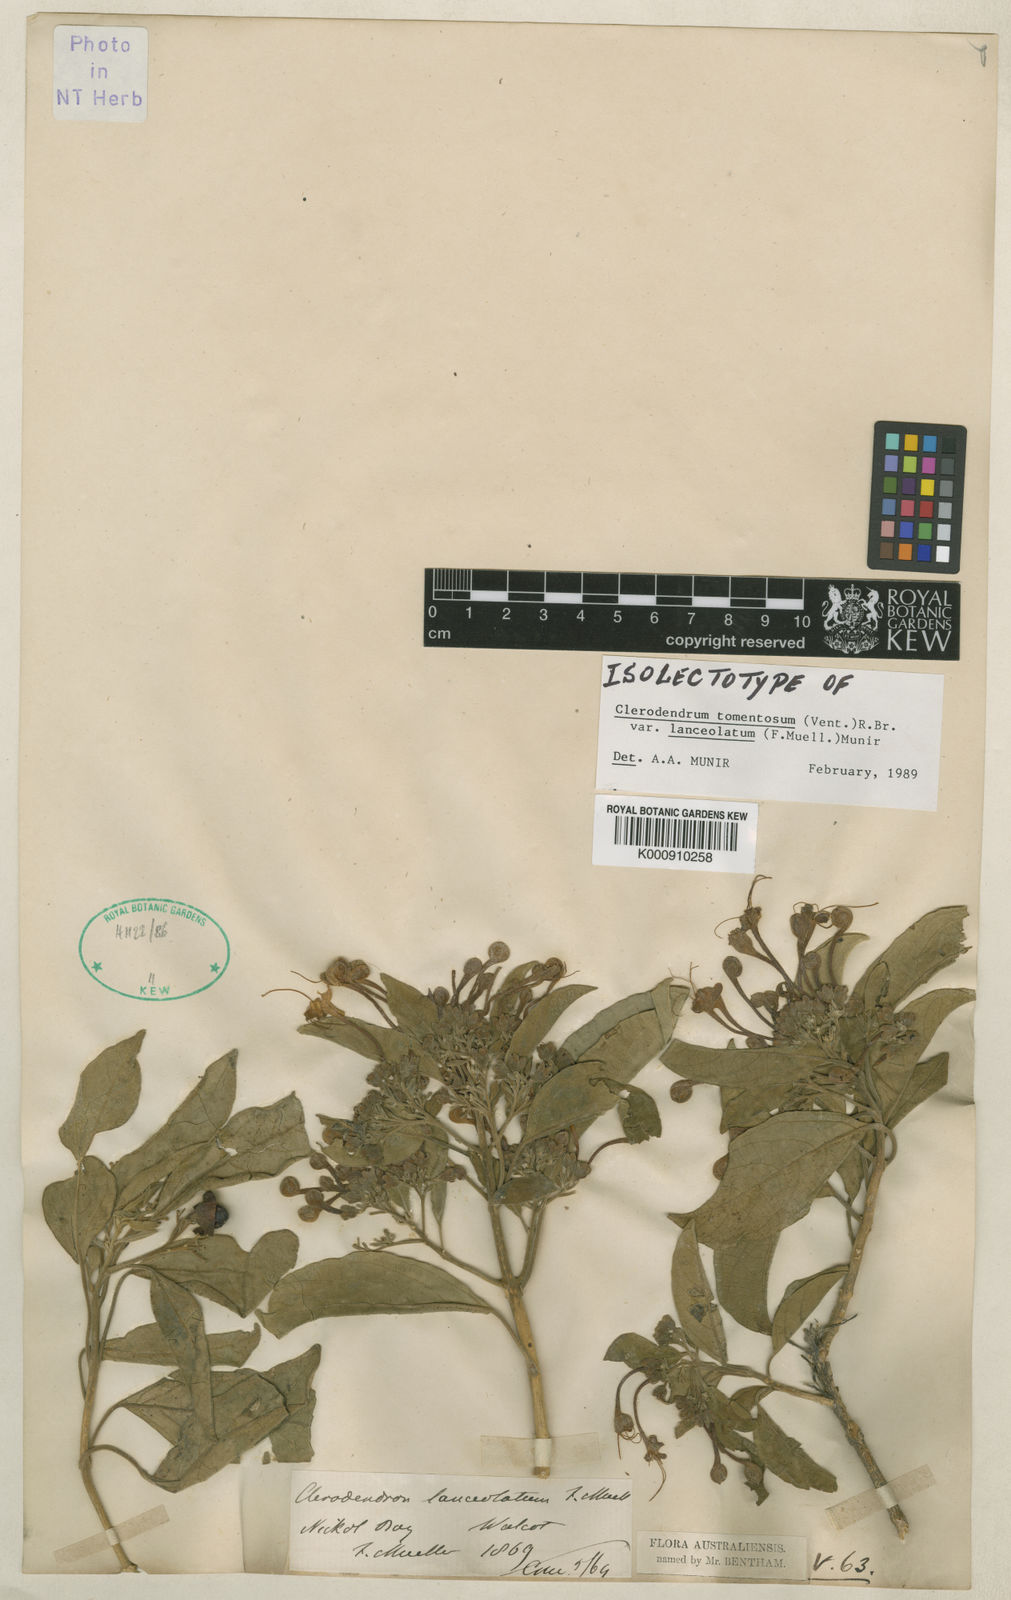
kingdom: Plantae
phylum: Tracheophyta
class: Magnoliopsida
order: Lamiales
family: Lamiaceae
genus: Clerodendrum
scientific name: Clerodendrum tomentosum
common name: Hairy clerodendrum
